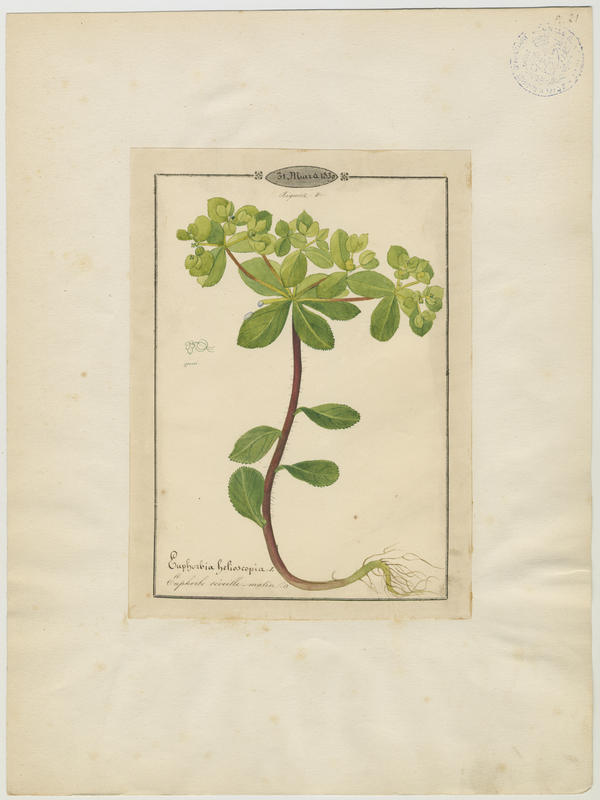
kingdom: Plantae
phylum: Tracheophyta
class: Magnoliopsida
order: Malpighiales
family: Euphorbiaceae
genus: Euphorbia
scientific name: Euphorbia helioscopia
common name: Sun spurge
